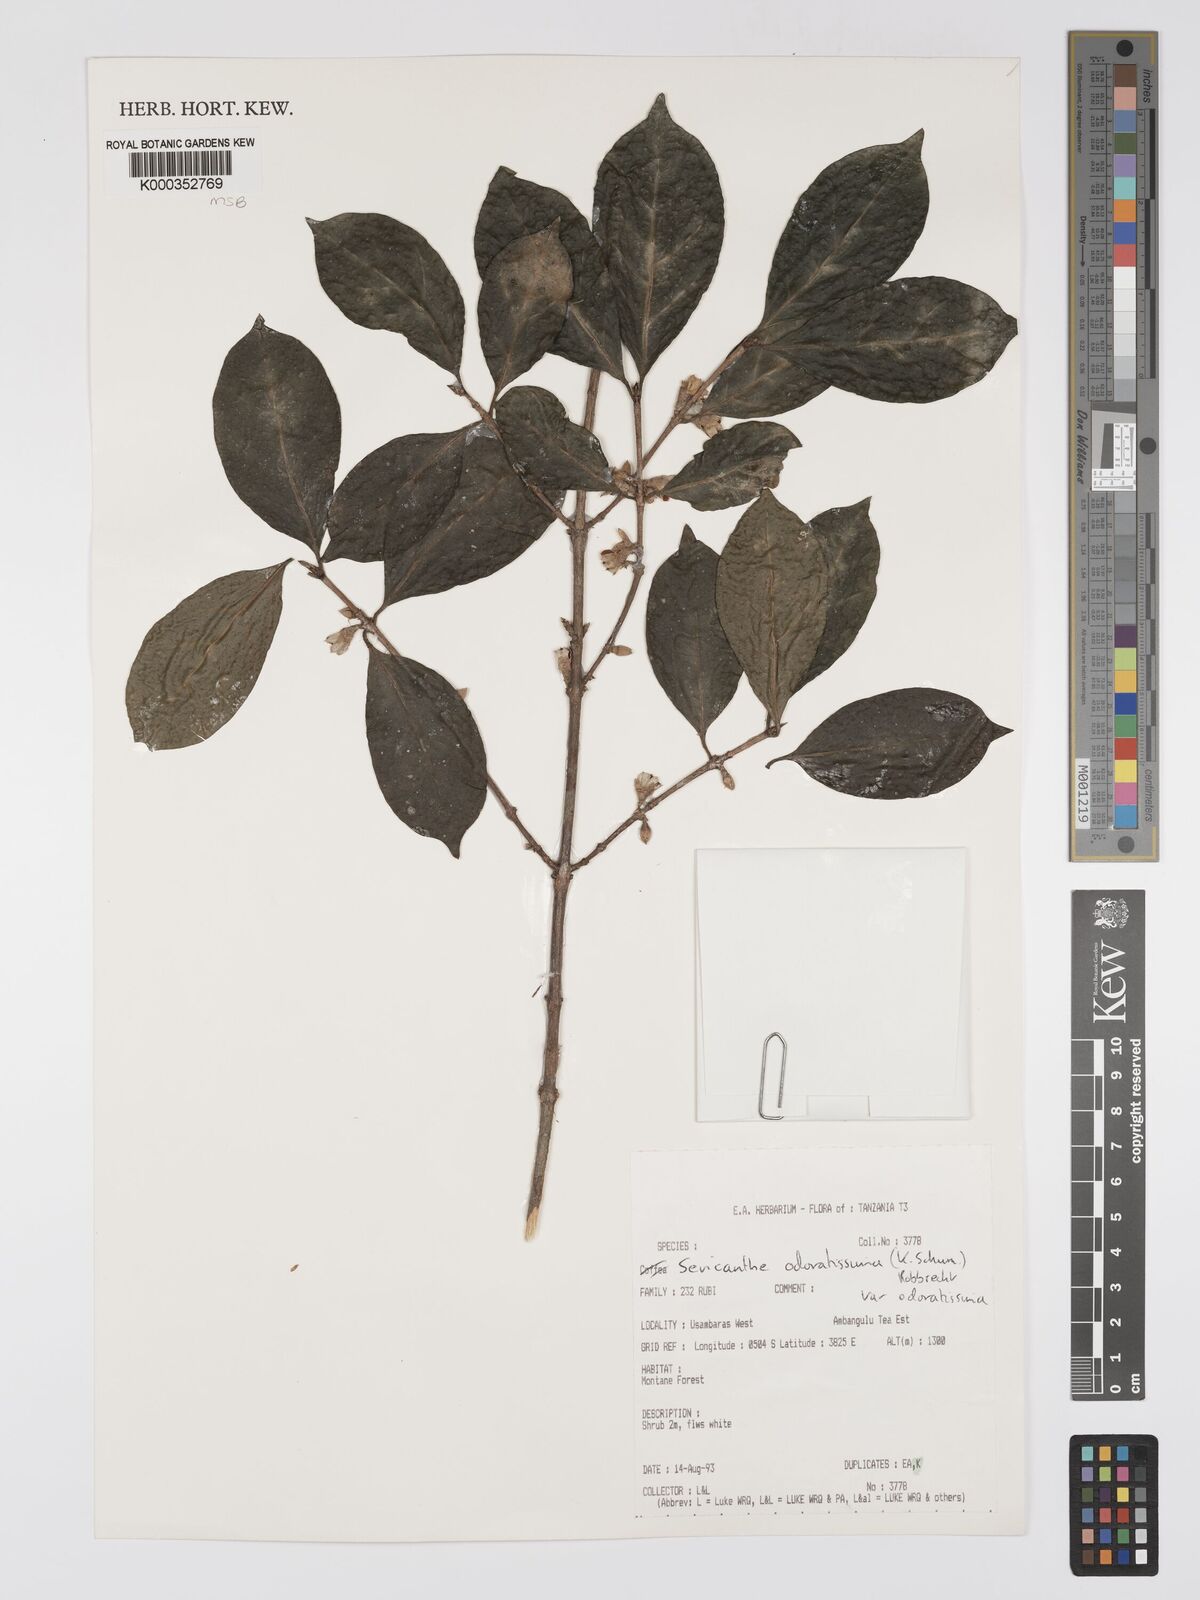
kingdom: Plantae
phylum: Tracheophyta
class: Magnoliopsida
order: Gentianales
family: Rubiaceae
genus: Sericanthe
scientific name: Sericanthe odoratissima
